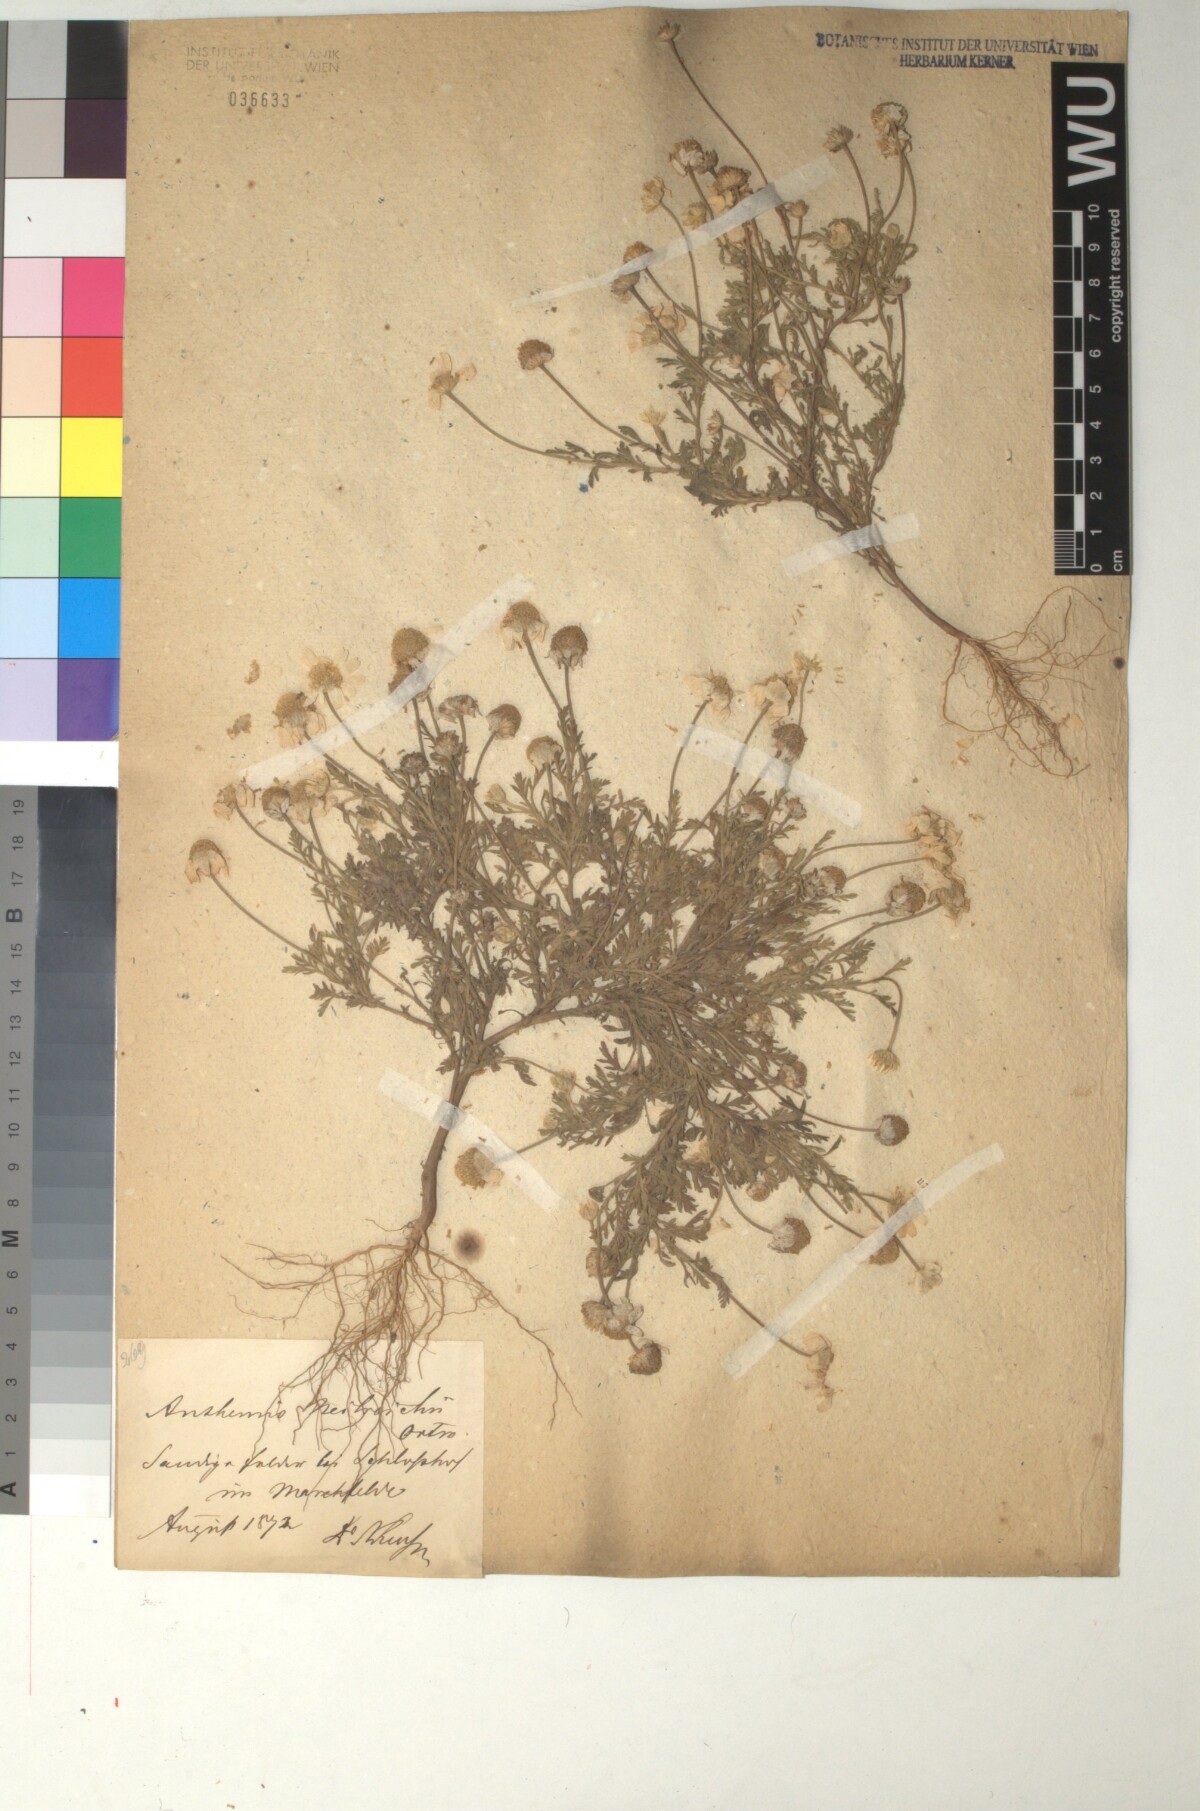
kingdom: Plantae
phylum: Tracheophyta
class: Magnoliopsida
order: Asterales
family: Asteraceae
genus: Anthemis
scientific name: Anthemis ruthenica
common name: Eastern chamomile
